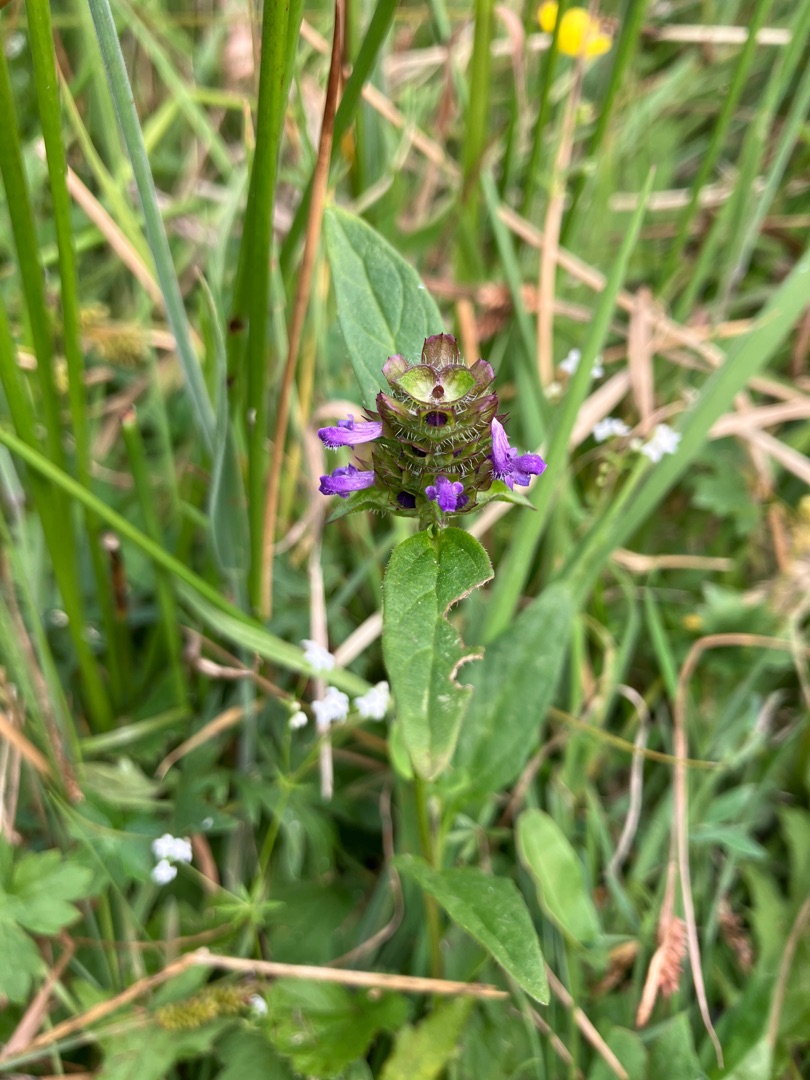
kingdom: Plantae
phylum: Tracheophyta
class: Magnoliopsida
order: Lamiales
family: Lamiaceae
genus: Prunella
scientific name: Prunella vulgaris
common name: Almindelig brunelle
